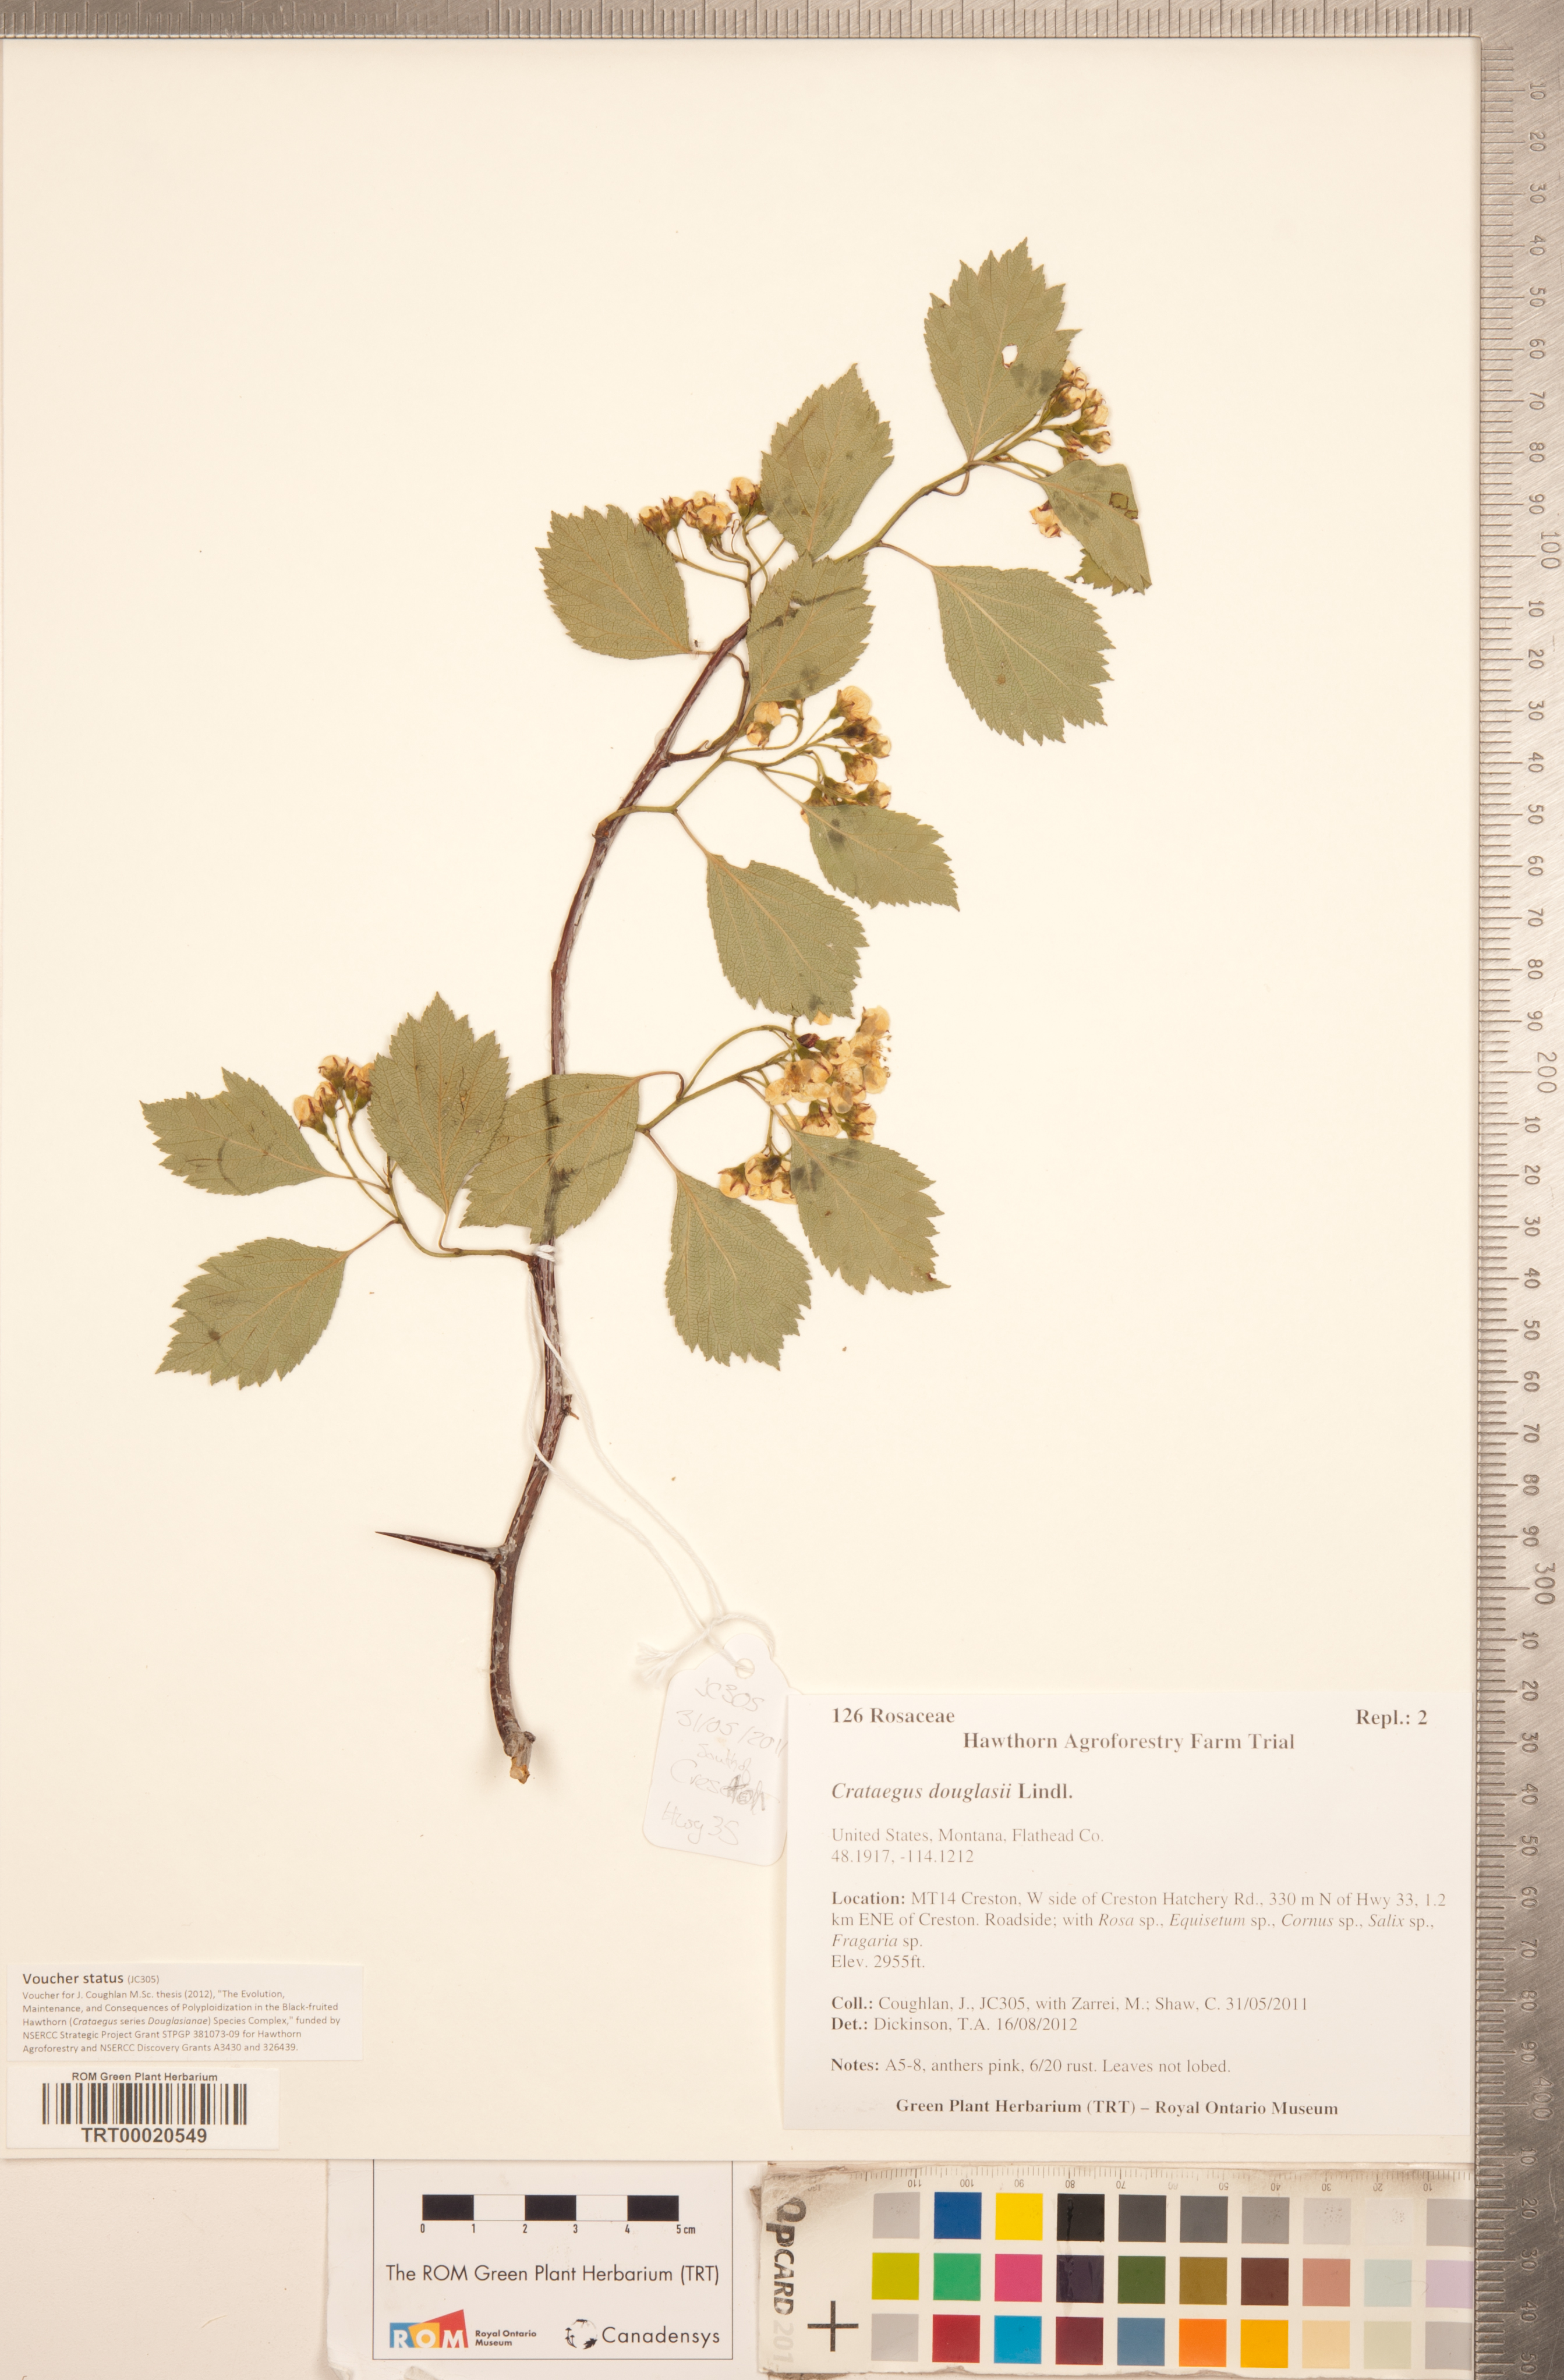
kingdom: Plantae
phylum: Tracheophyta
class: Magnoliopsida
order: Rosales
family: Rosaceae
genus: Crataegus
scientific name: Crataegus douglasii
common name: Black hawthorn
